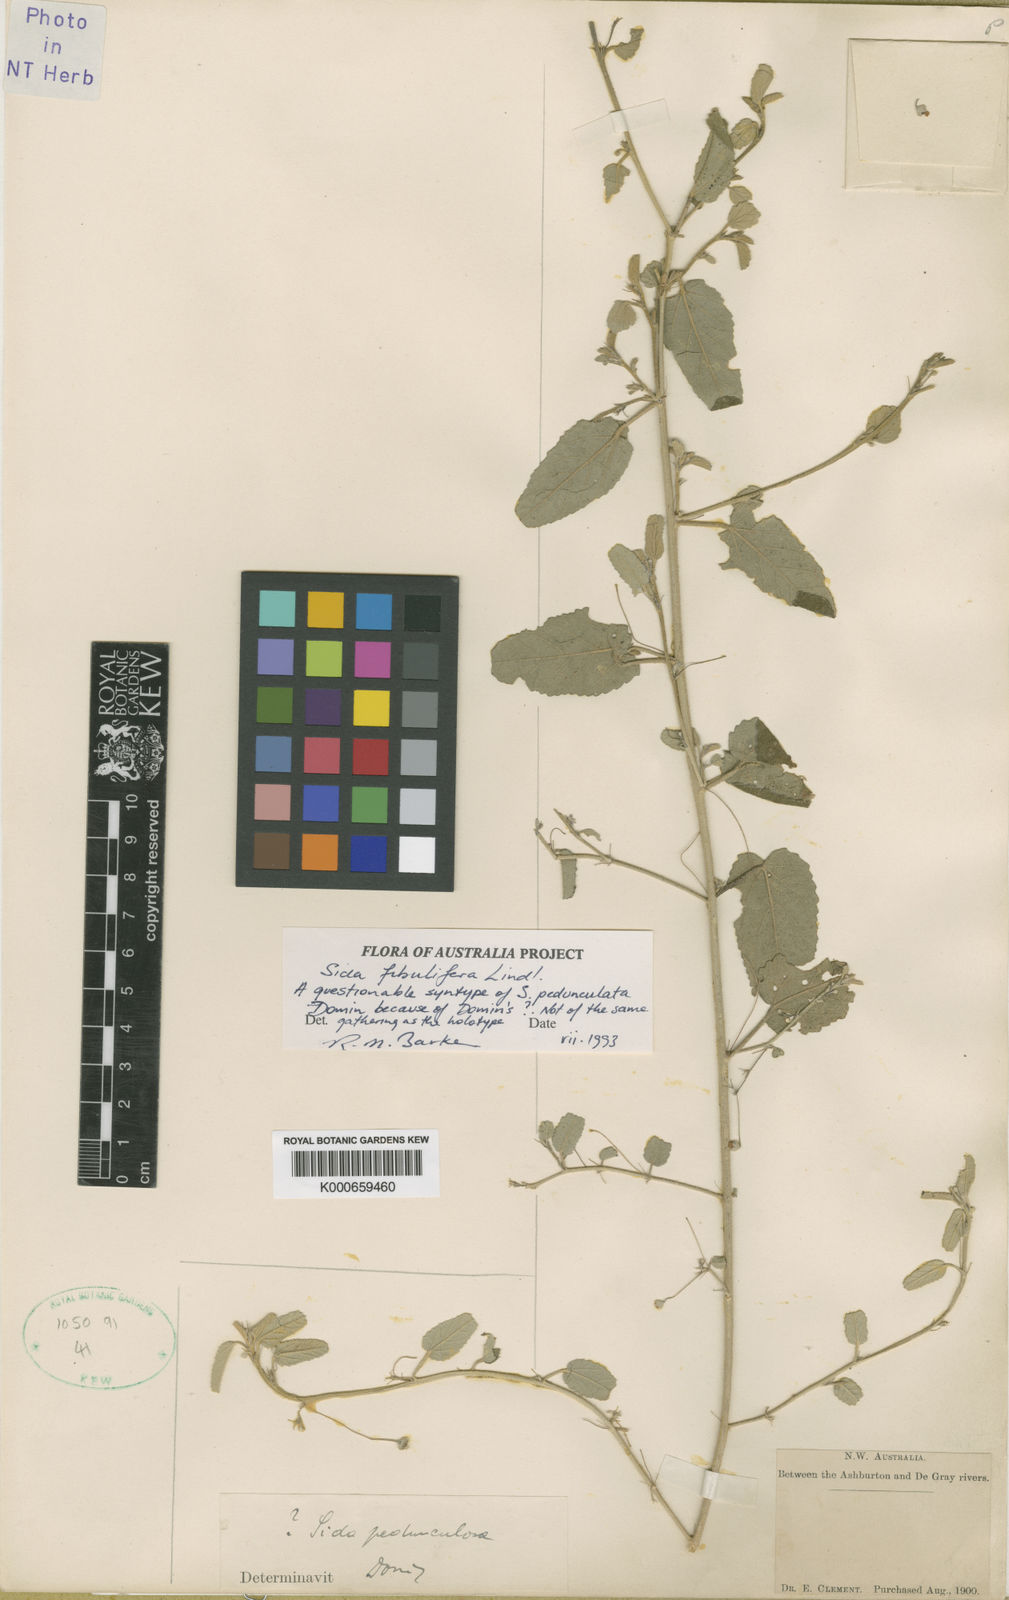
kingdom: Plantae
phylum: Tracheophyta
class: Magnoliopsida
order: Malvales
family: Malvaceae
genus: Sida
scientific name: Sida fibulifera
